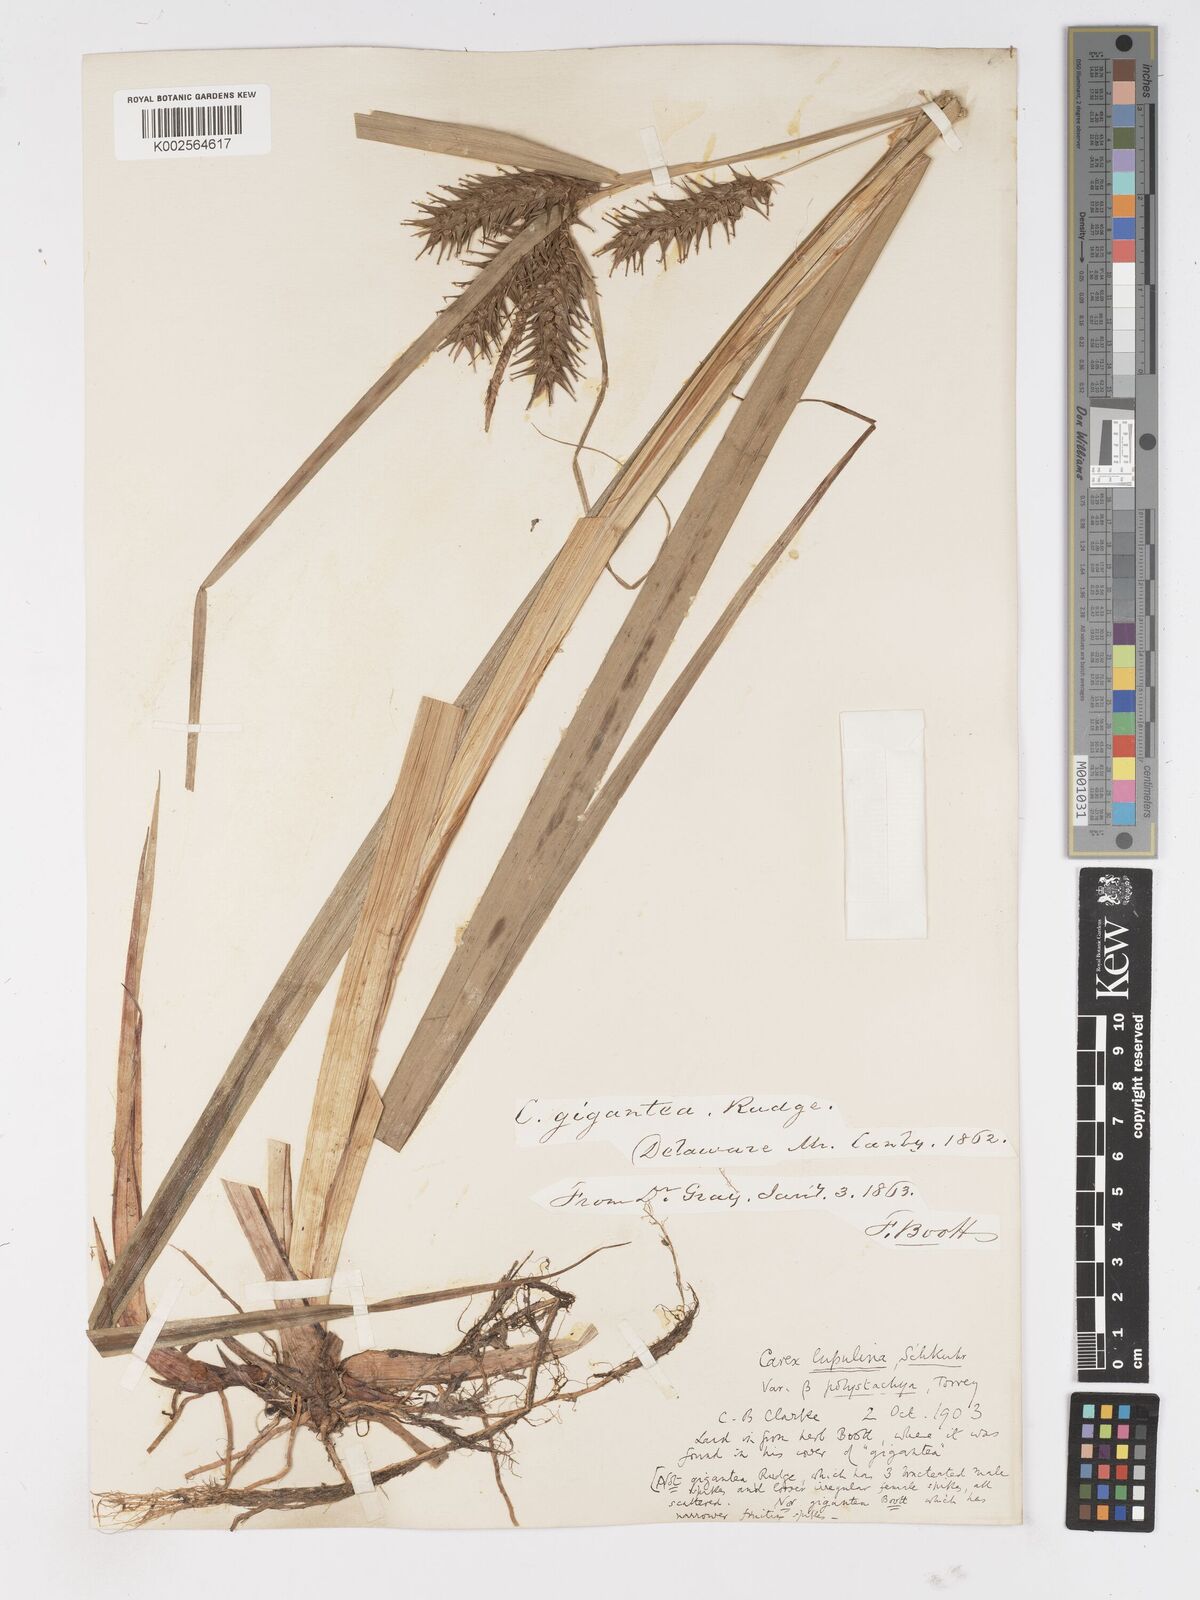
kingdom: Plantae
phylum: Tracheophyta
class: Liliopsida
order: Poales
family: Cyperaceae
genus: Carex
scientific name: Carex lupuliformis
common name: False hop sedge
